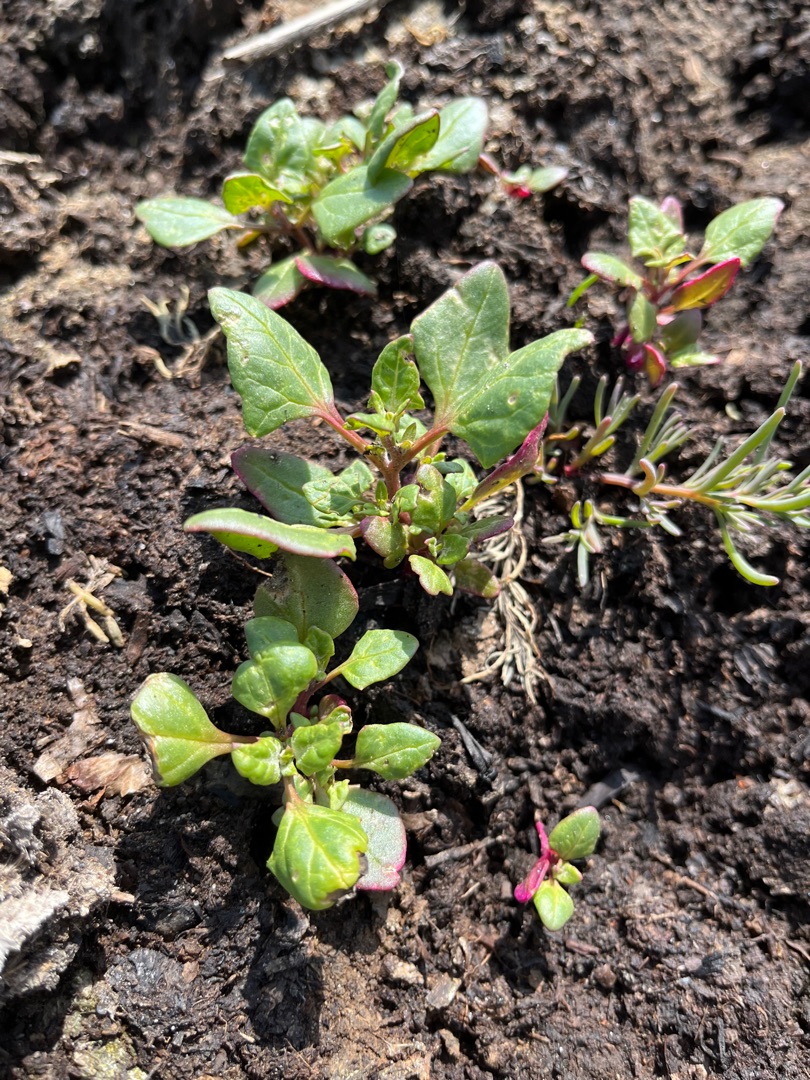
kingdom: Plantae
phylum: Tracheophyta
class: Magnoliopsida
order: Caryophyllales
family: Amaranthaceae
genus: Oxybasis
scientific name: Oxybasis chenopodioides
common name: Drue-gåsefod
